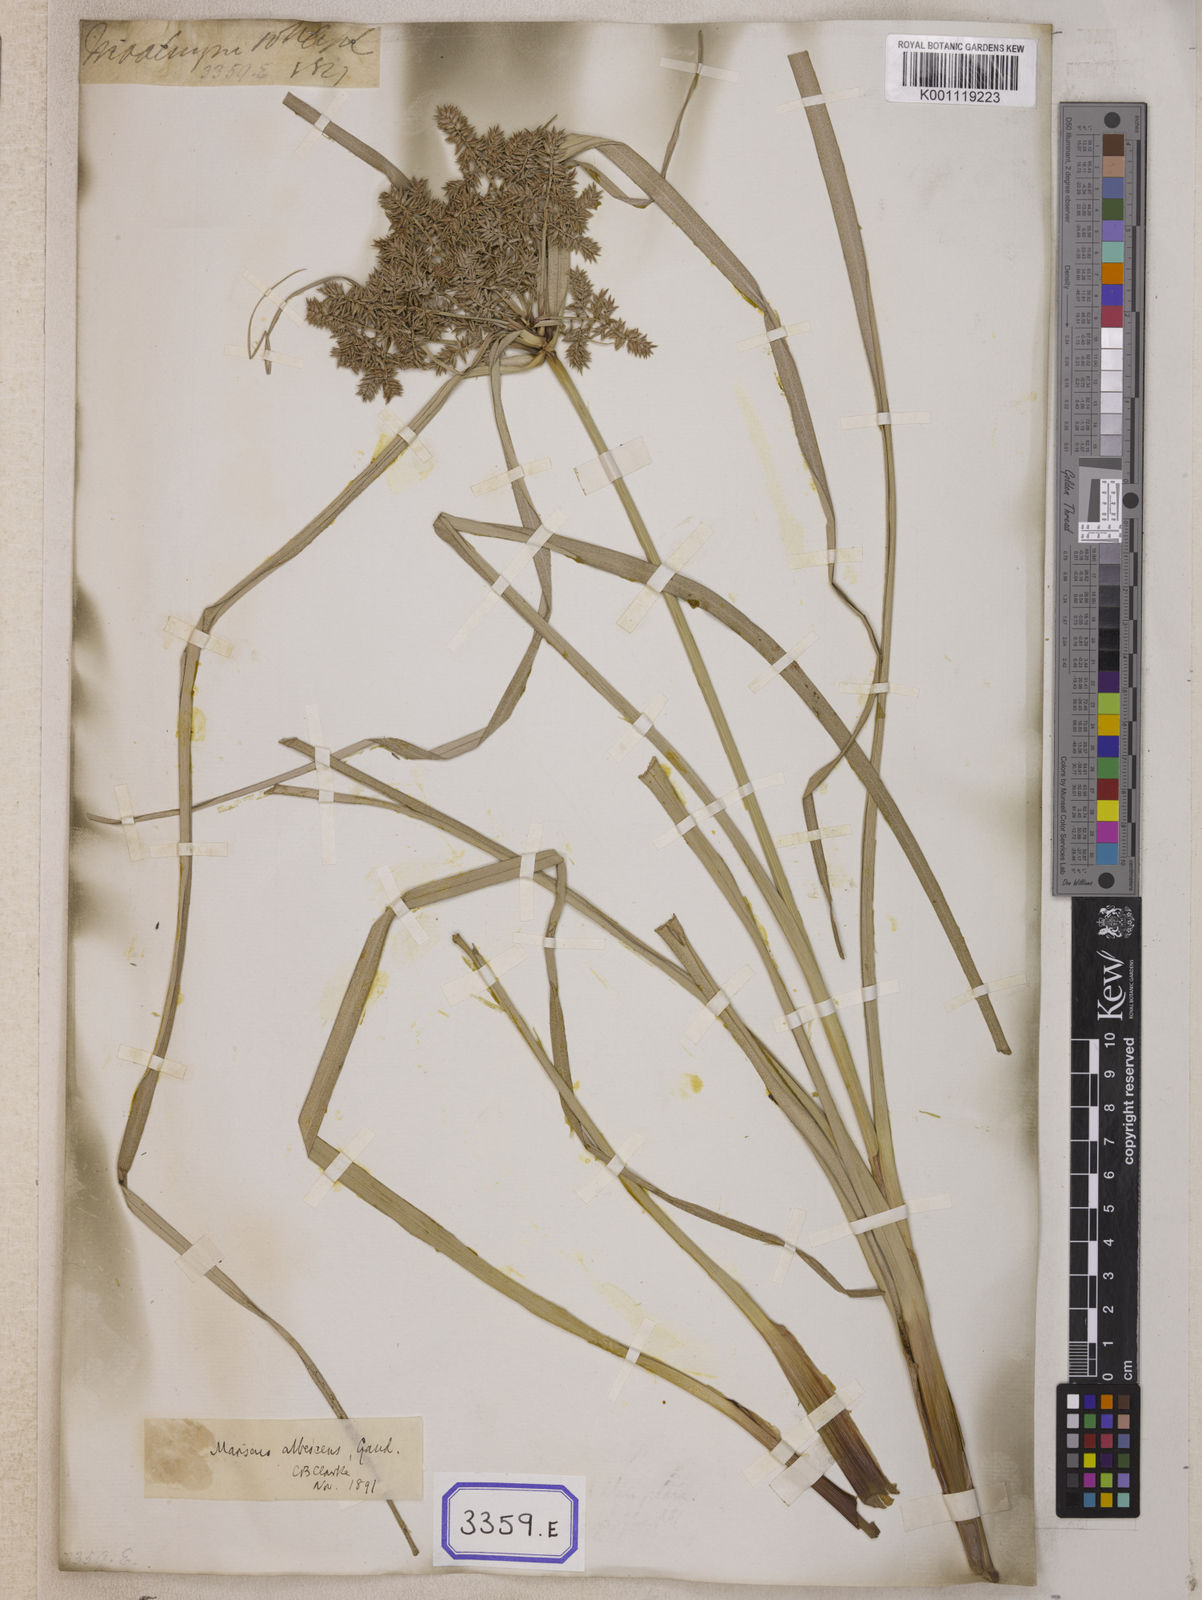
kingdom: Plantae
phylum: Tracheophyta
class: Liliopsida
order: Poales
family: Cyperaceae
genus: Cyperus
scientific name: Cyperus
